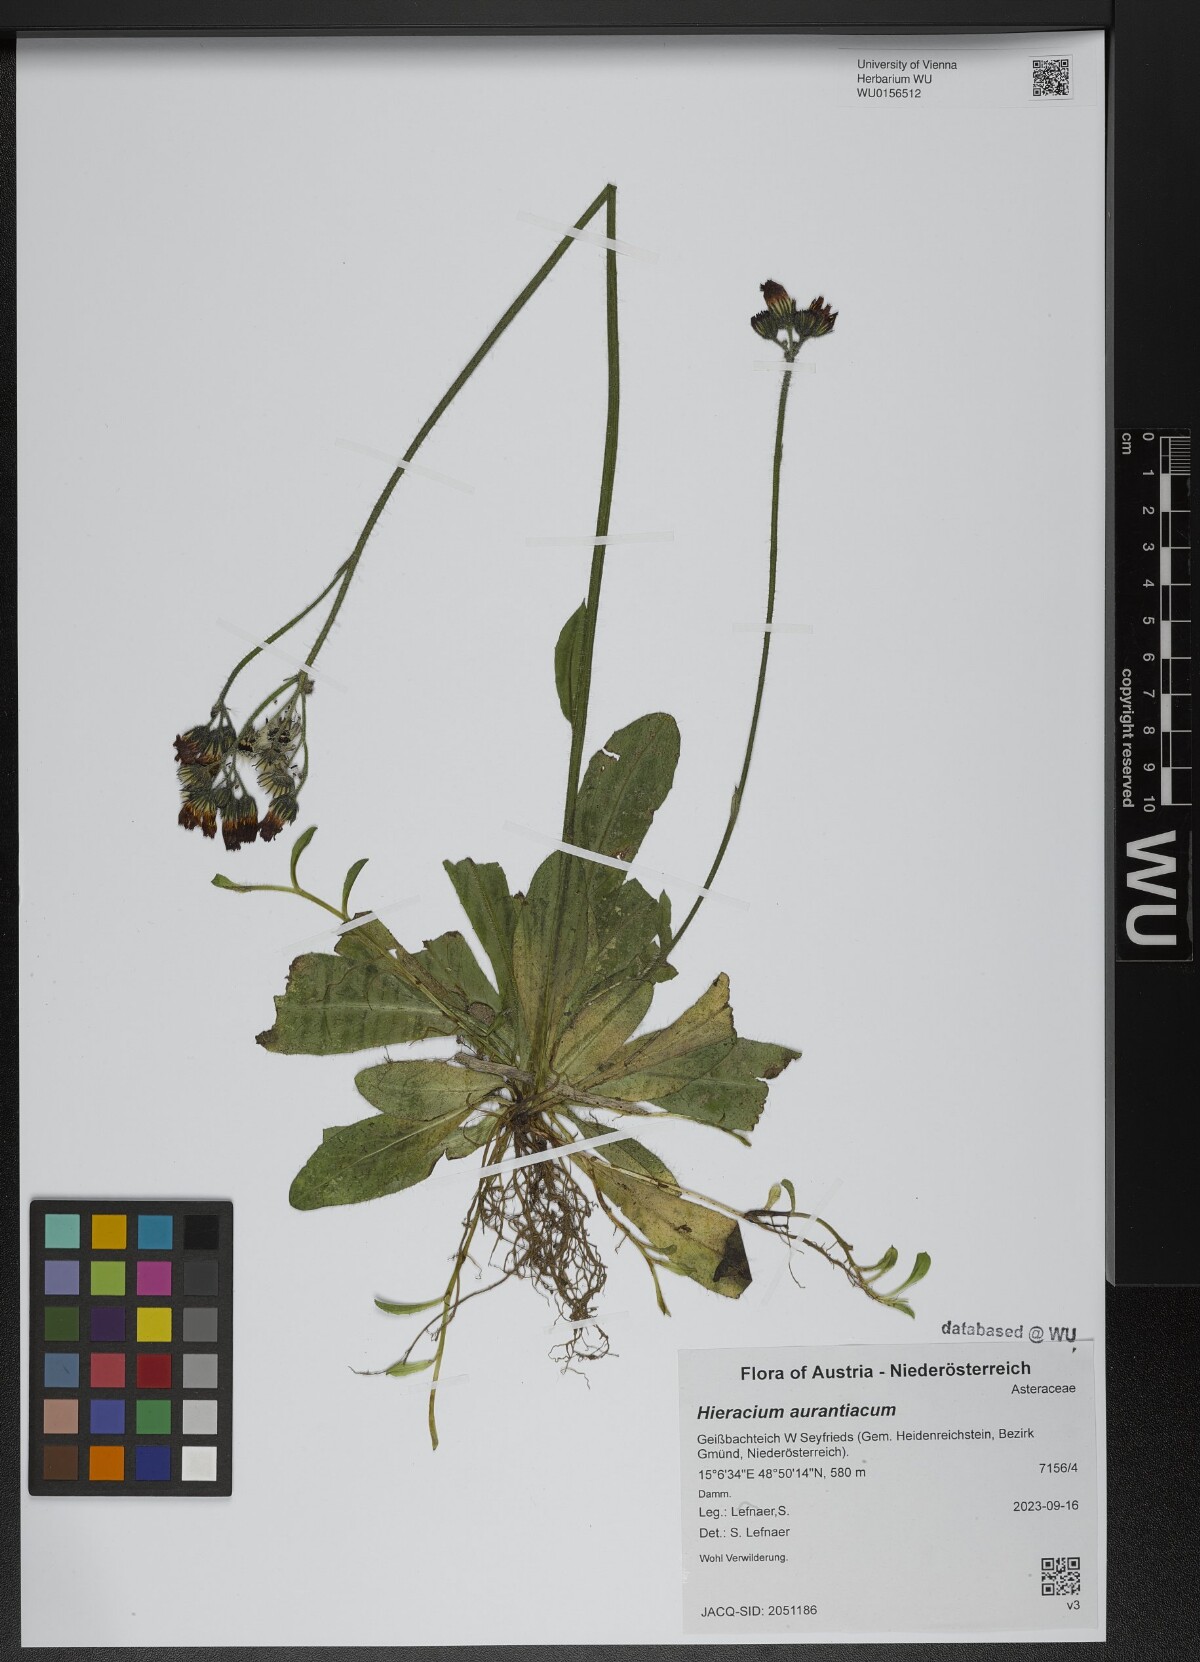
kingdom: Plantae
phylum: Tracheophyta
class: Magnoliopsida
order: Asterales
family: Asteraceae
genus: Pilosella
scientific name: Pilosella aurantiaca
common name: Fox-and-cubs
